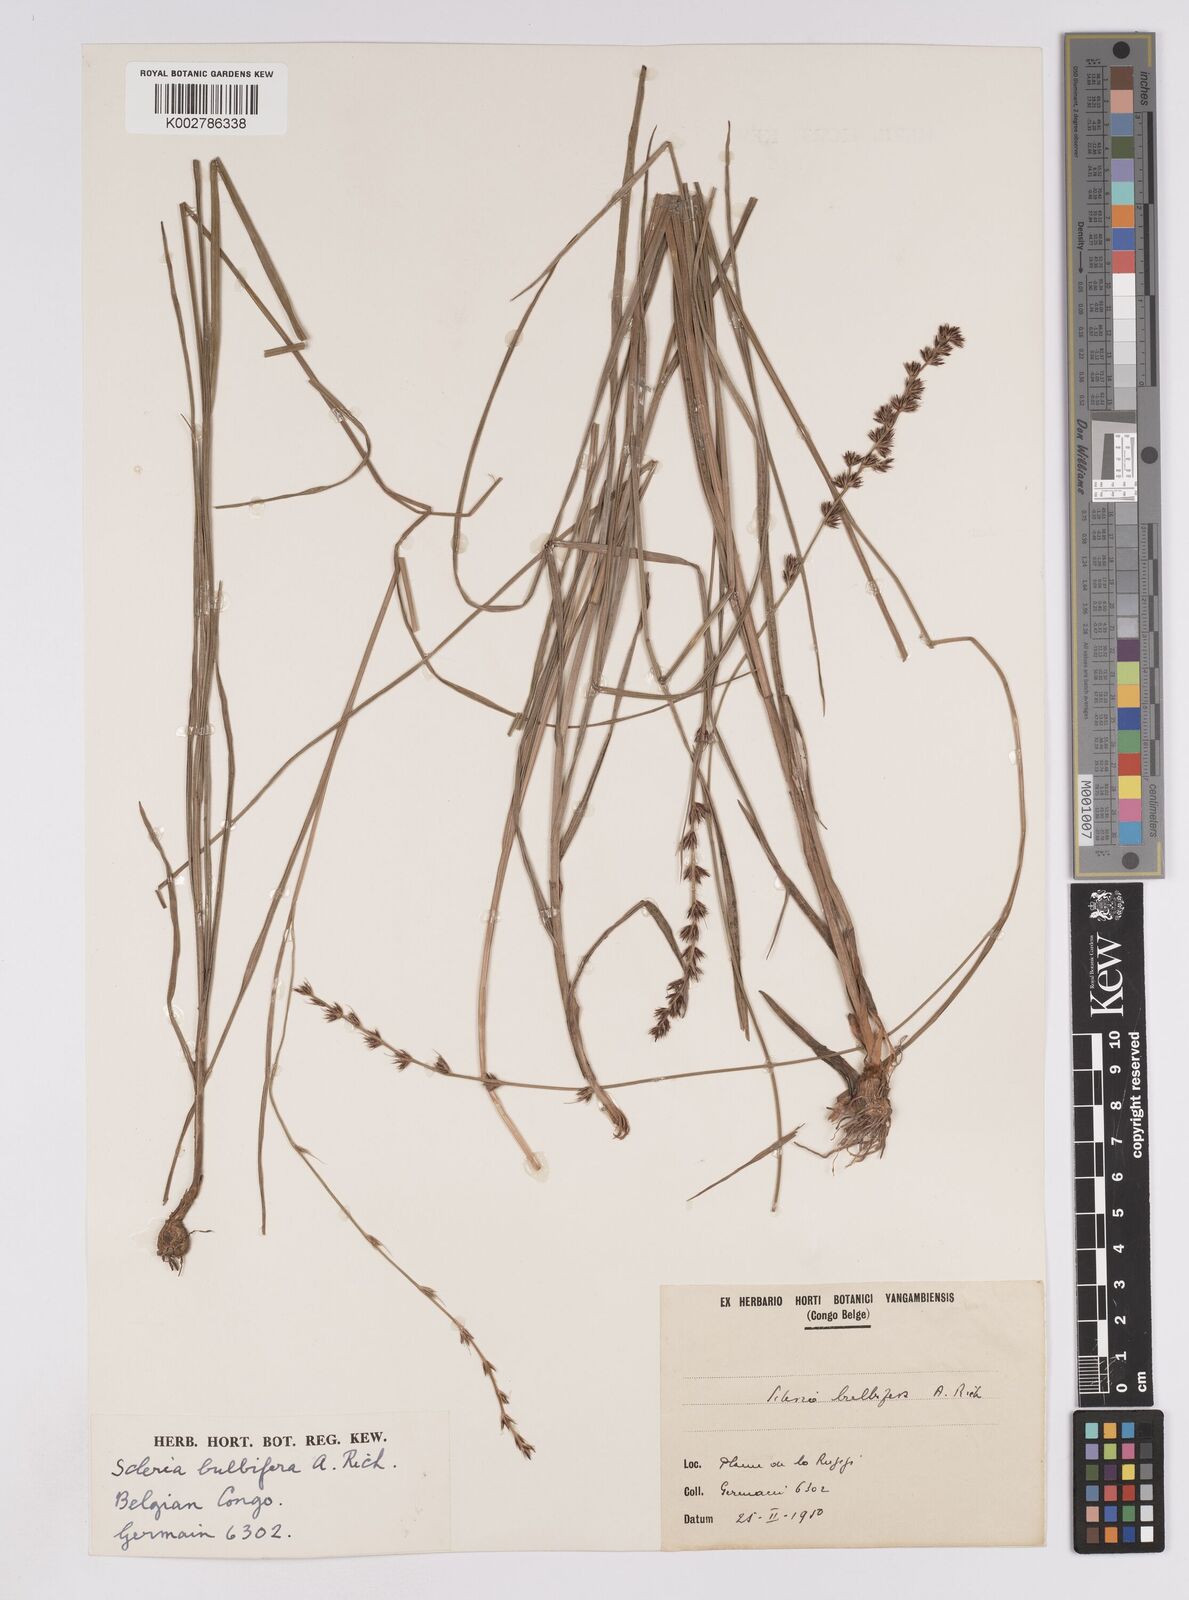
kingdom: Plantae
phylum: Tracheophyta
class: Liliopsida
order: Poales
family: Cyperaceae
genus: Scleria
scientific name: Scleria bulbifera
